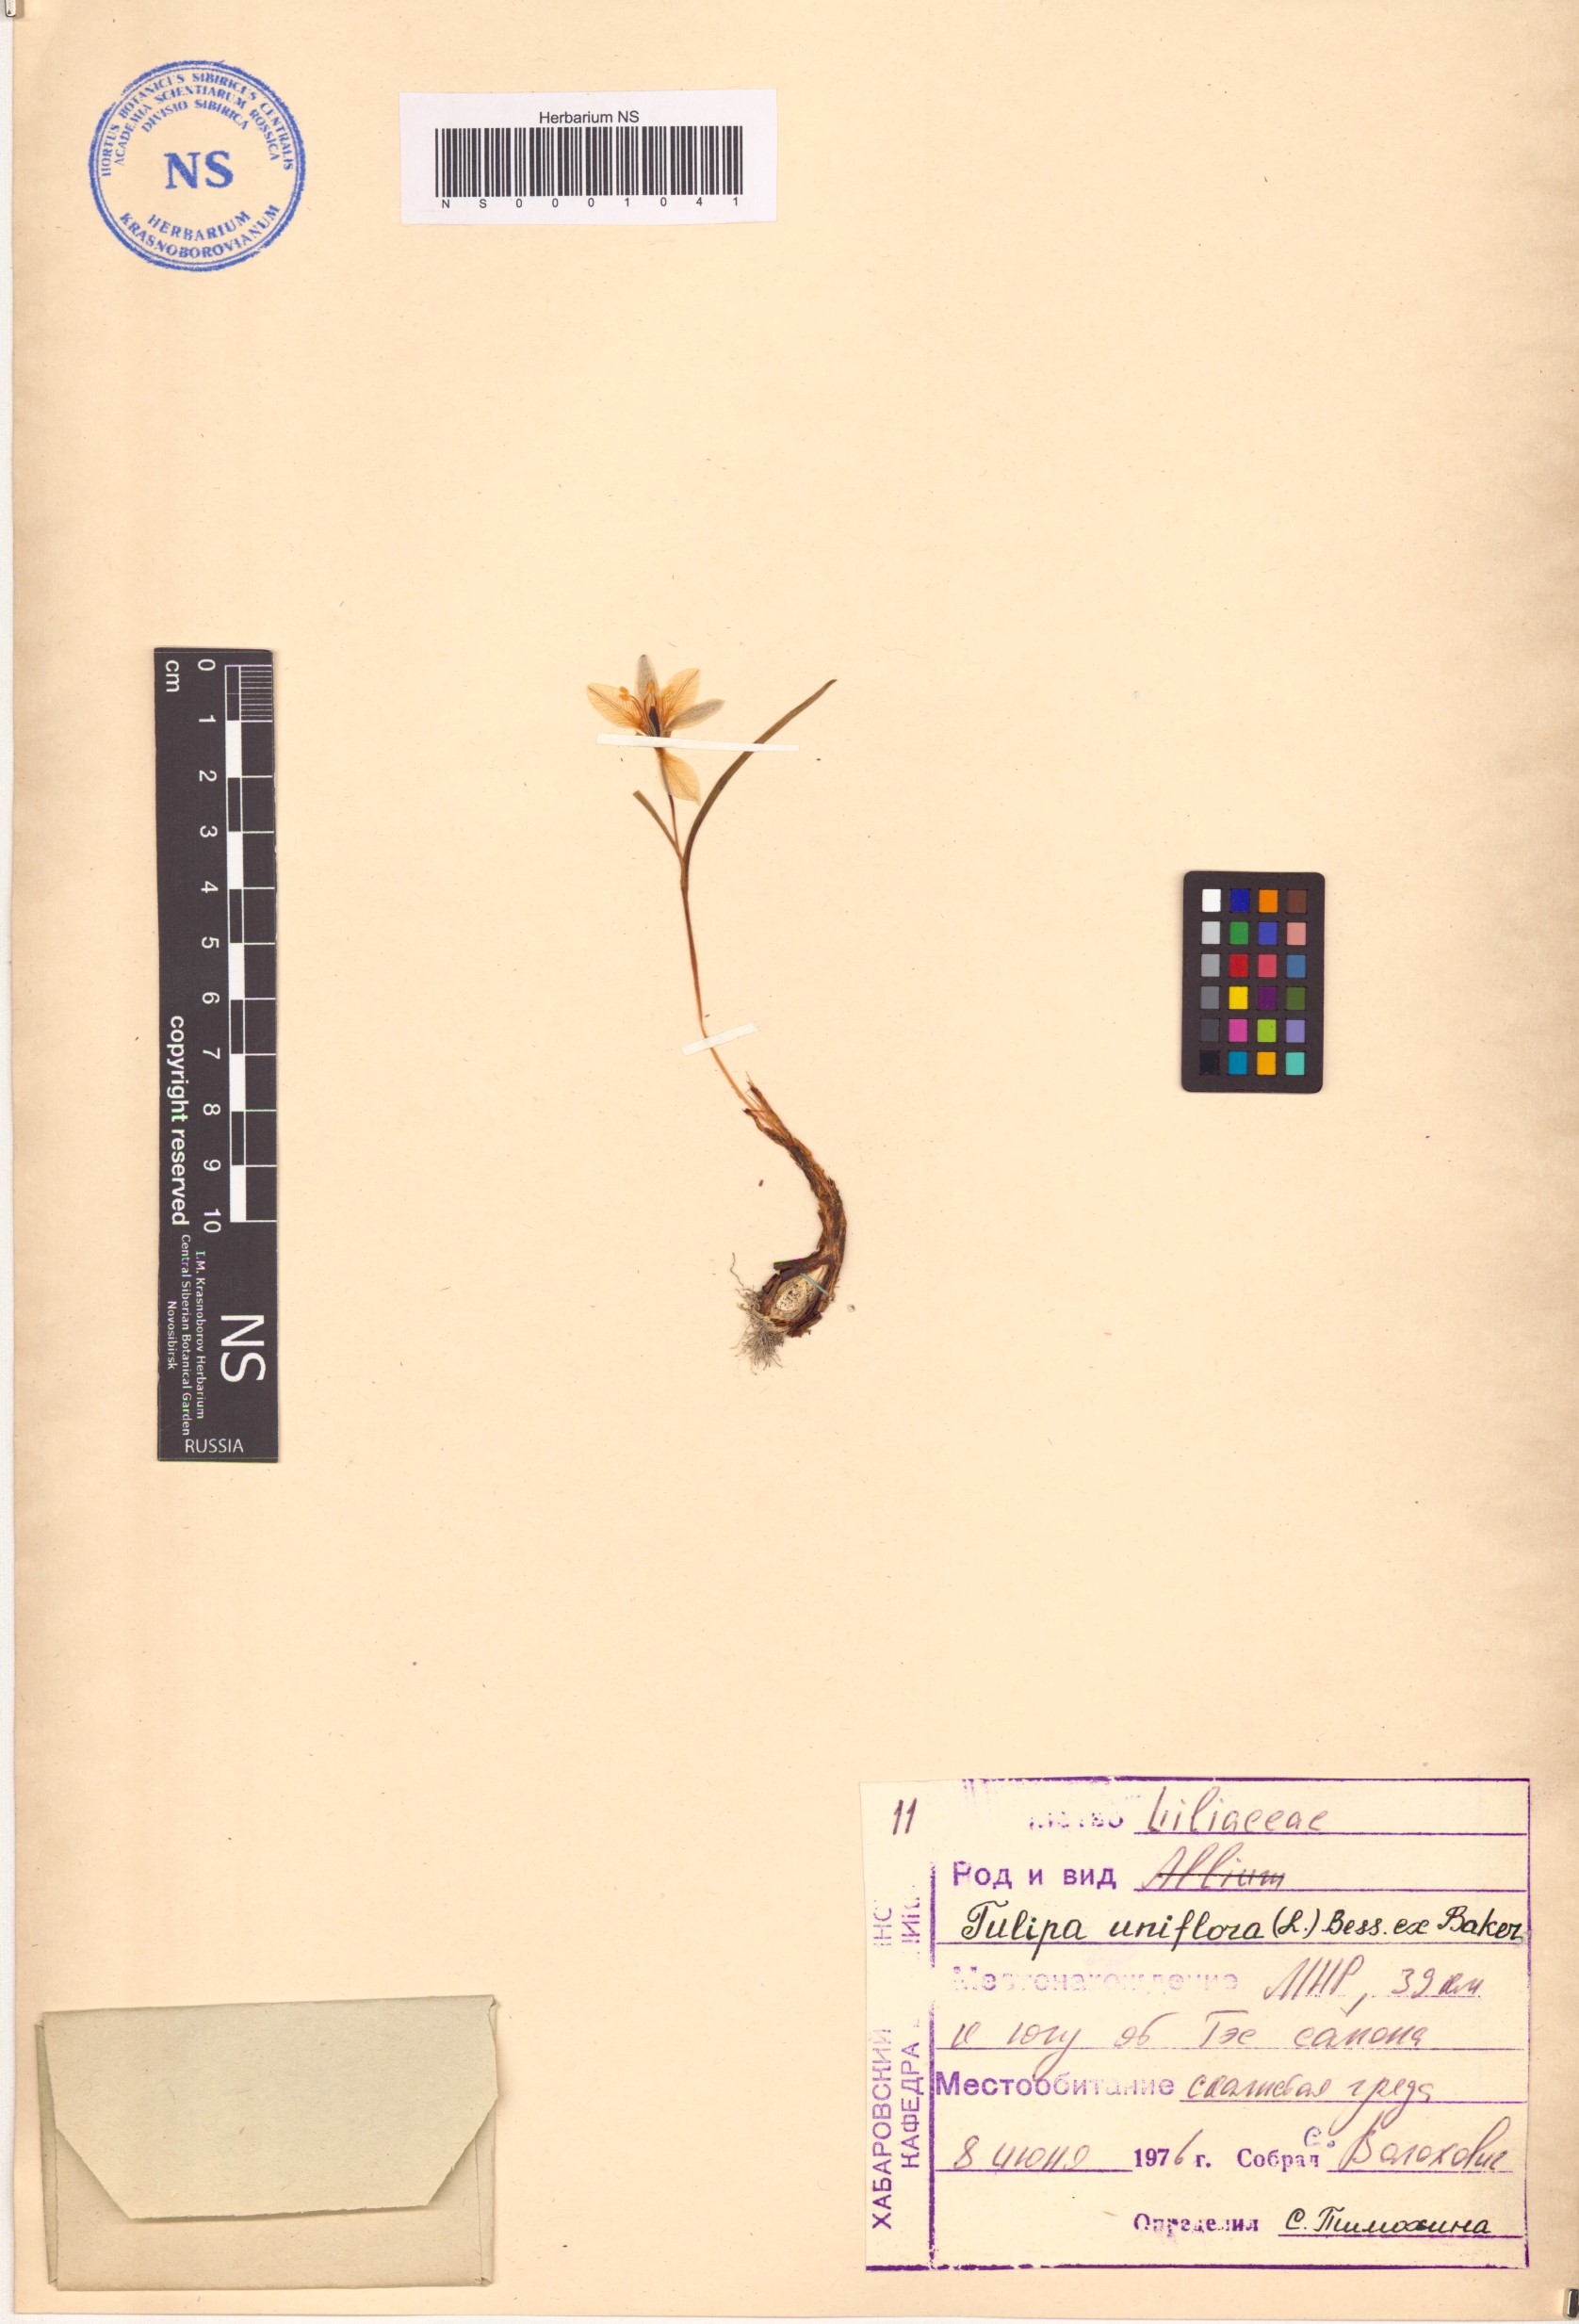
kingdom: Plantae
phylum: Tracheophyta
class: Liliopsida
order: Liliales
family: Liliaceae
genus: Tulipa
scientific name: Tulipa uniflora
